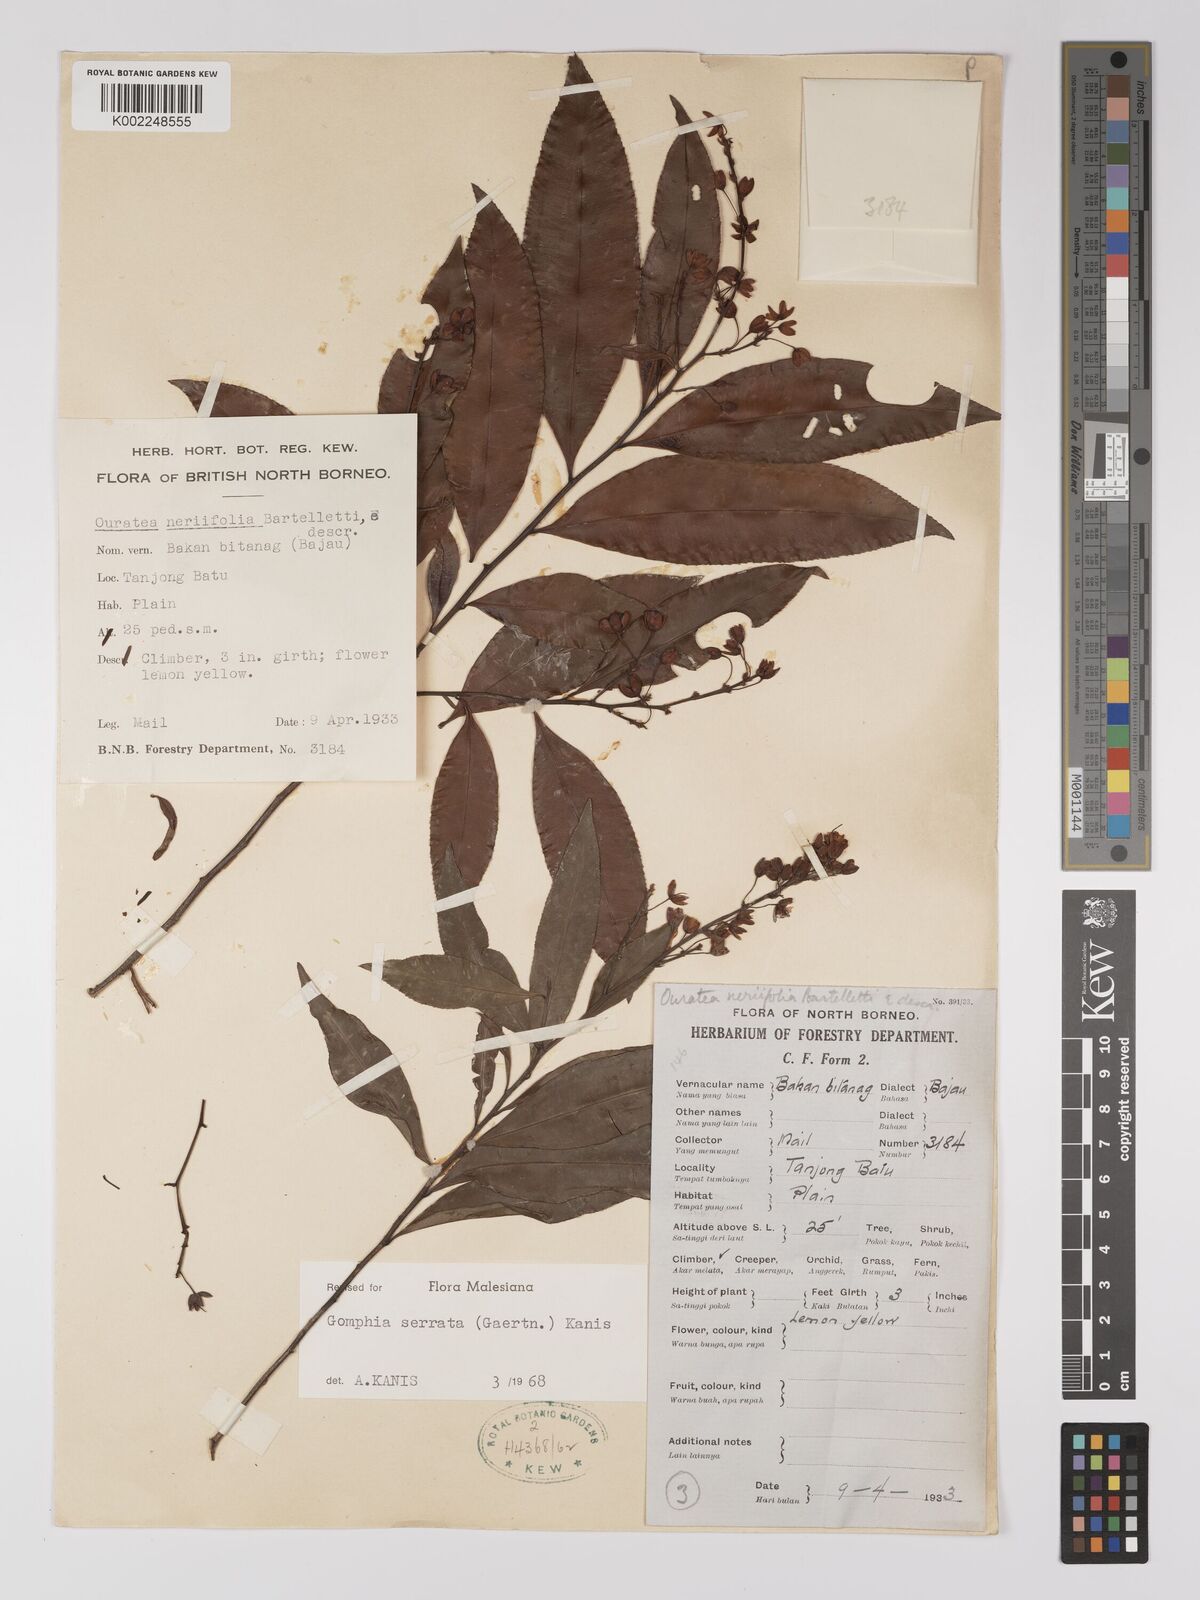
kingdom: Plantae
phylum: Tracheophyta
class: Magnoliopsida
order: Malpighiales
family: Ochnaceae
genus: Gomphia
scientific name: Gomphia serrata
